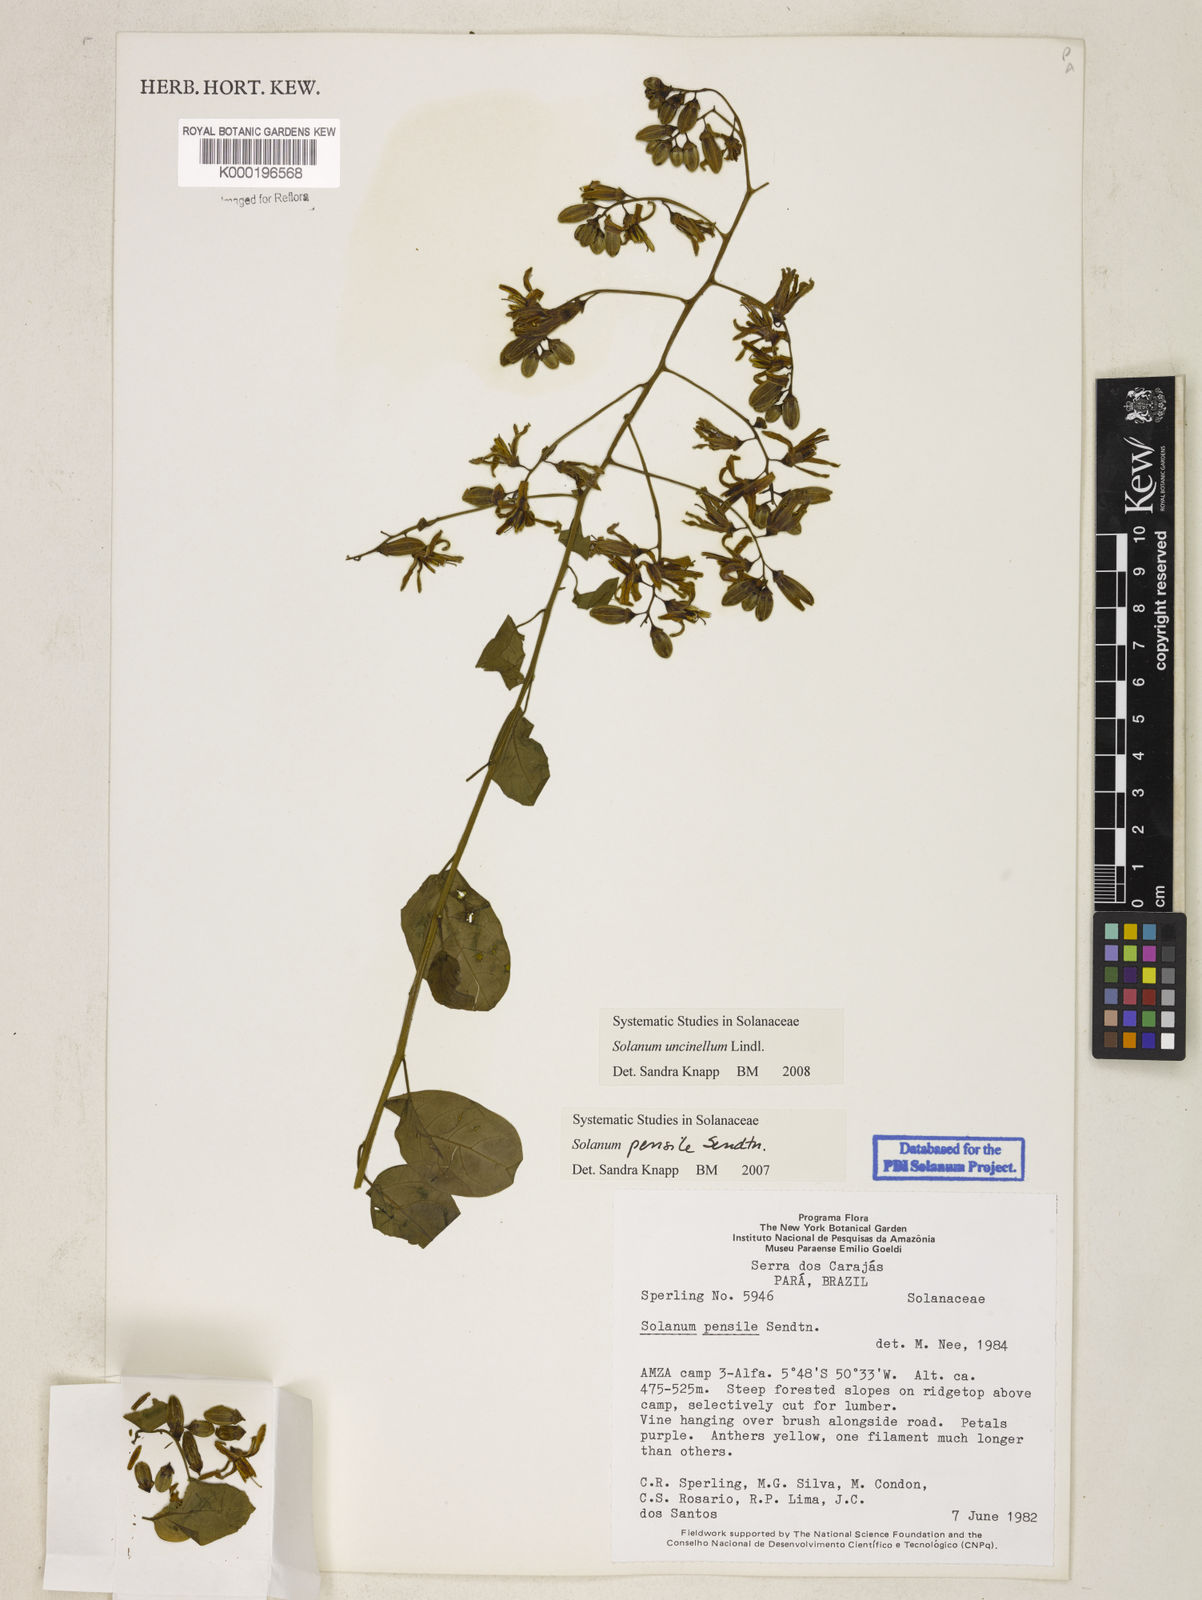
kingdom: Plantae
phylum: Tracheophyta
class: Magnoliopsida
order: Solanales
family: Solanaceae
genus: Solanum
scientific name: Solanum uncinellum
